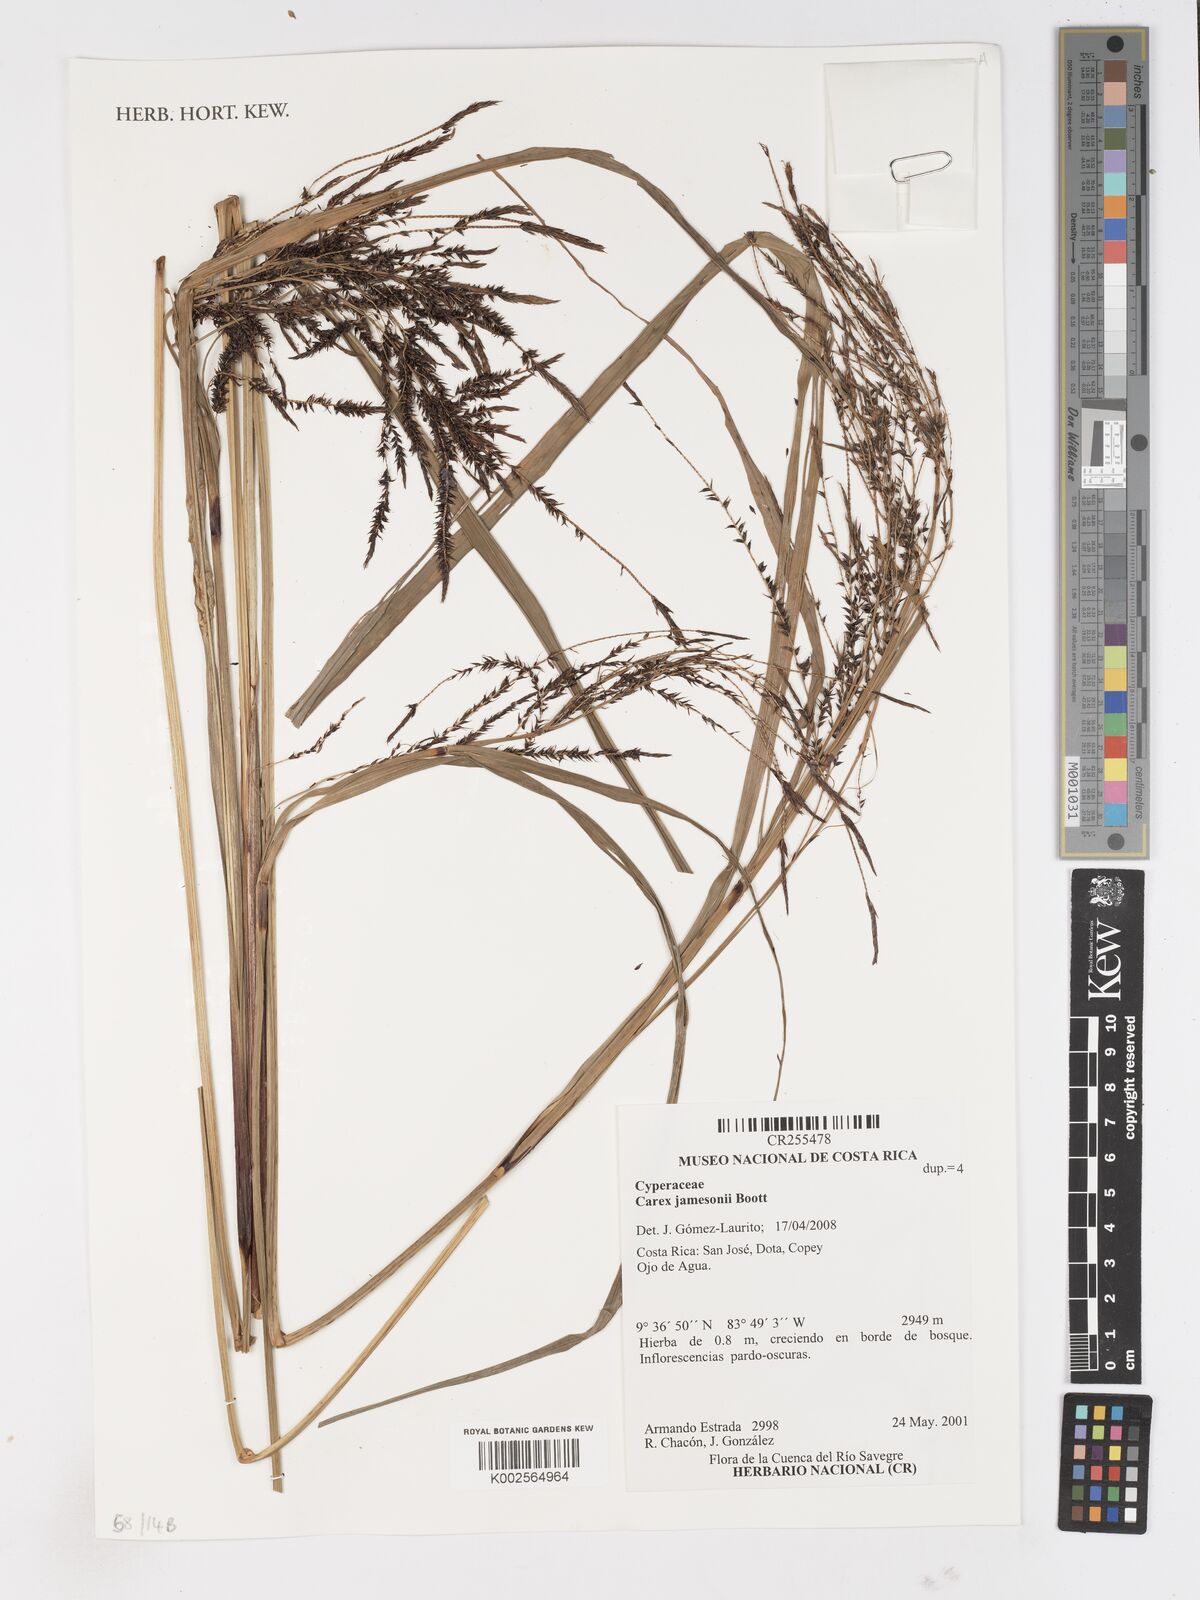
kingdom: Plantae
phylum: Tracheophyta
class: Liliopsida
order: Poales
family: Cyperaceae
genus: Carex
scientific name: Carex jamesonii
